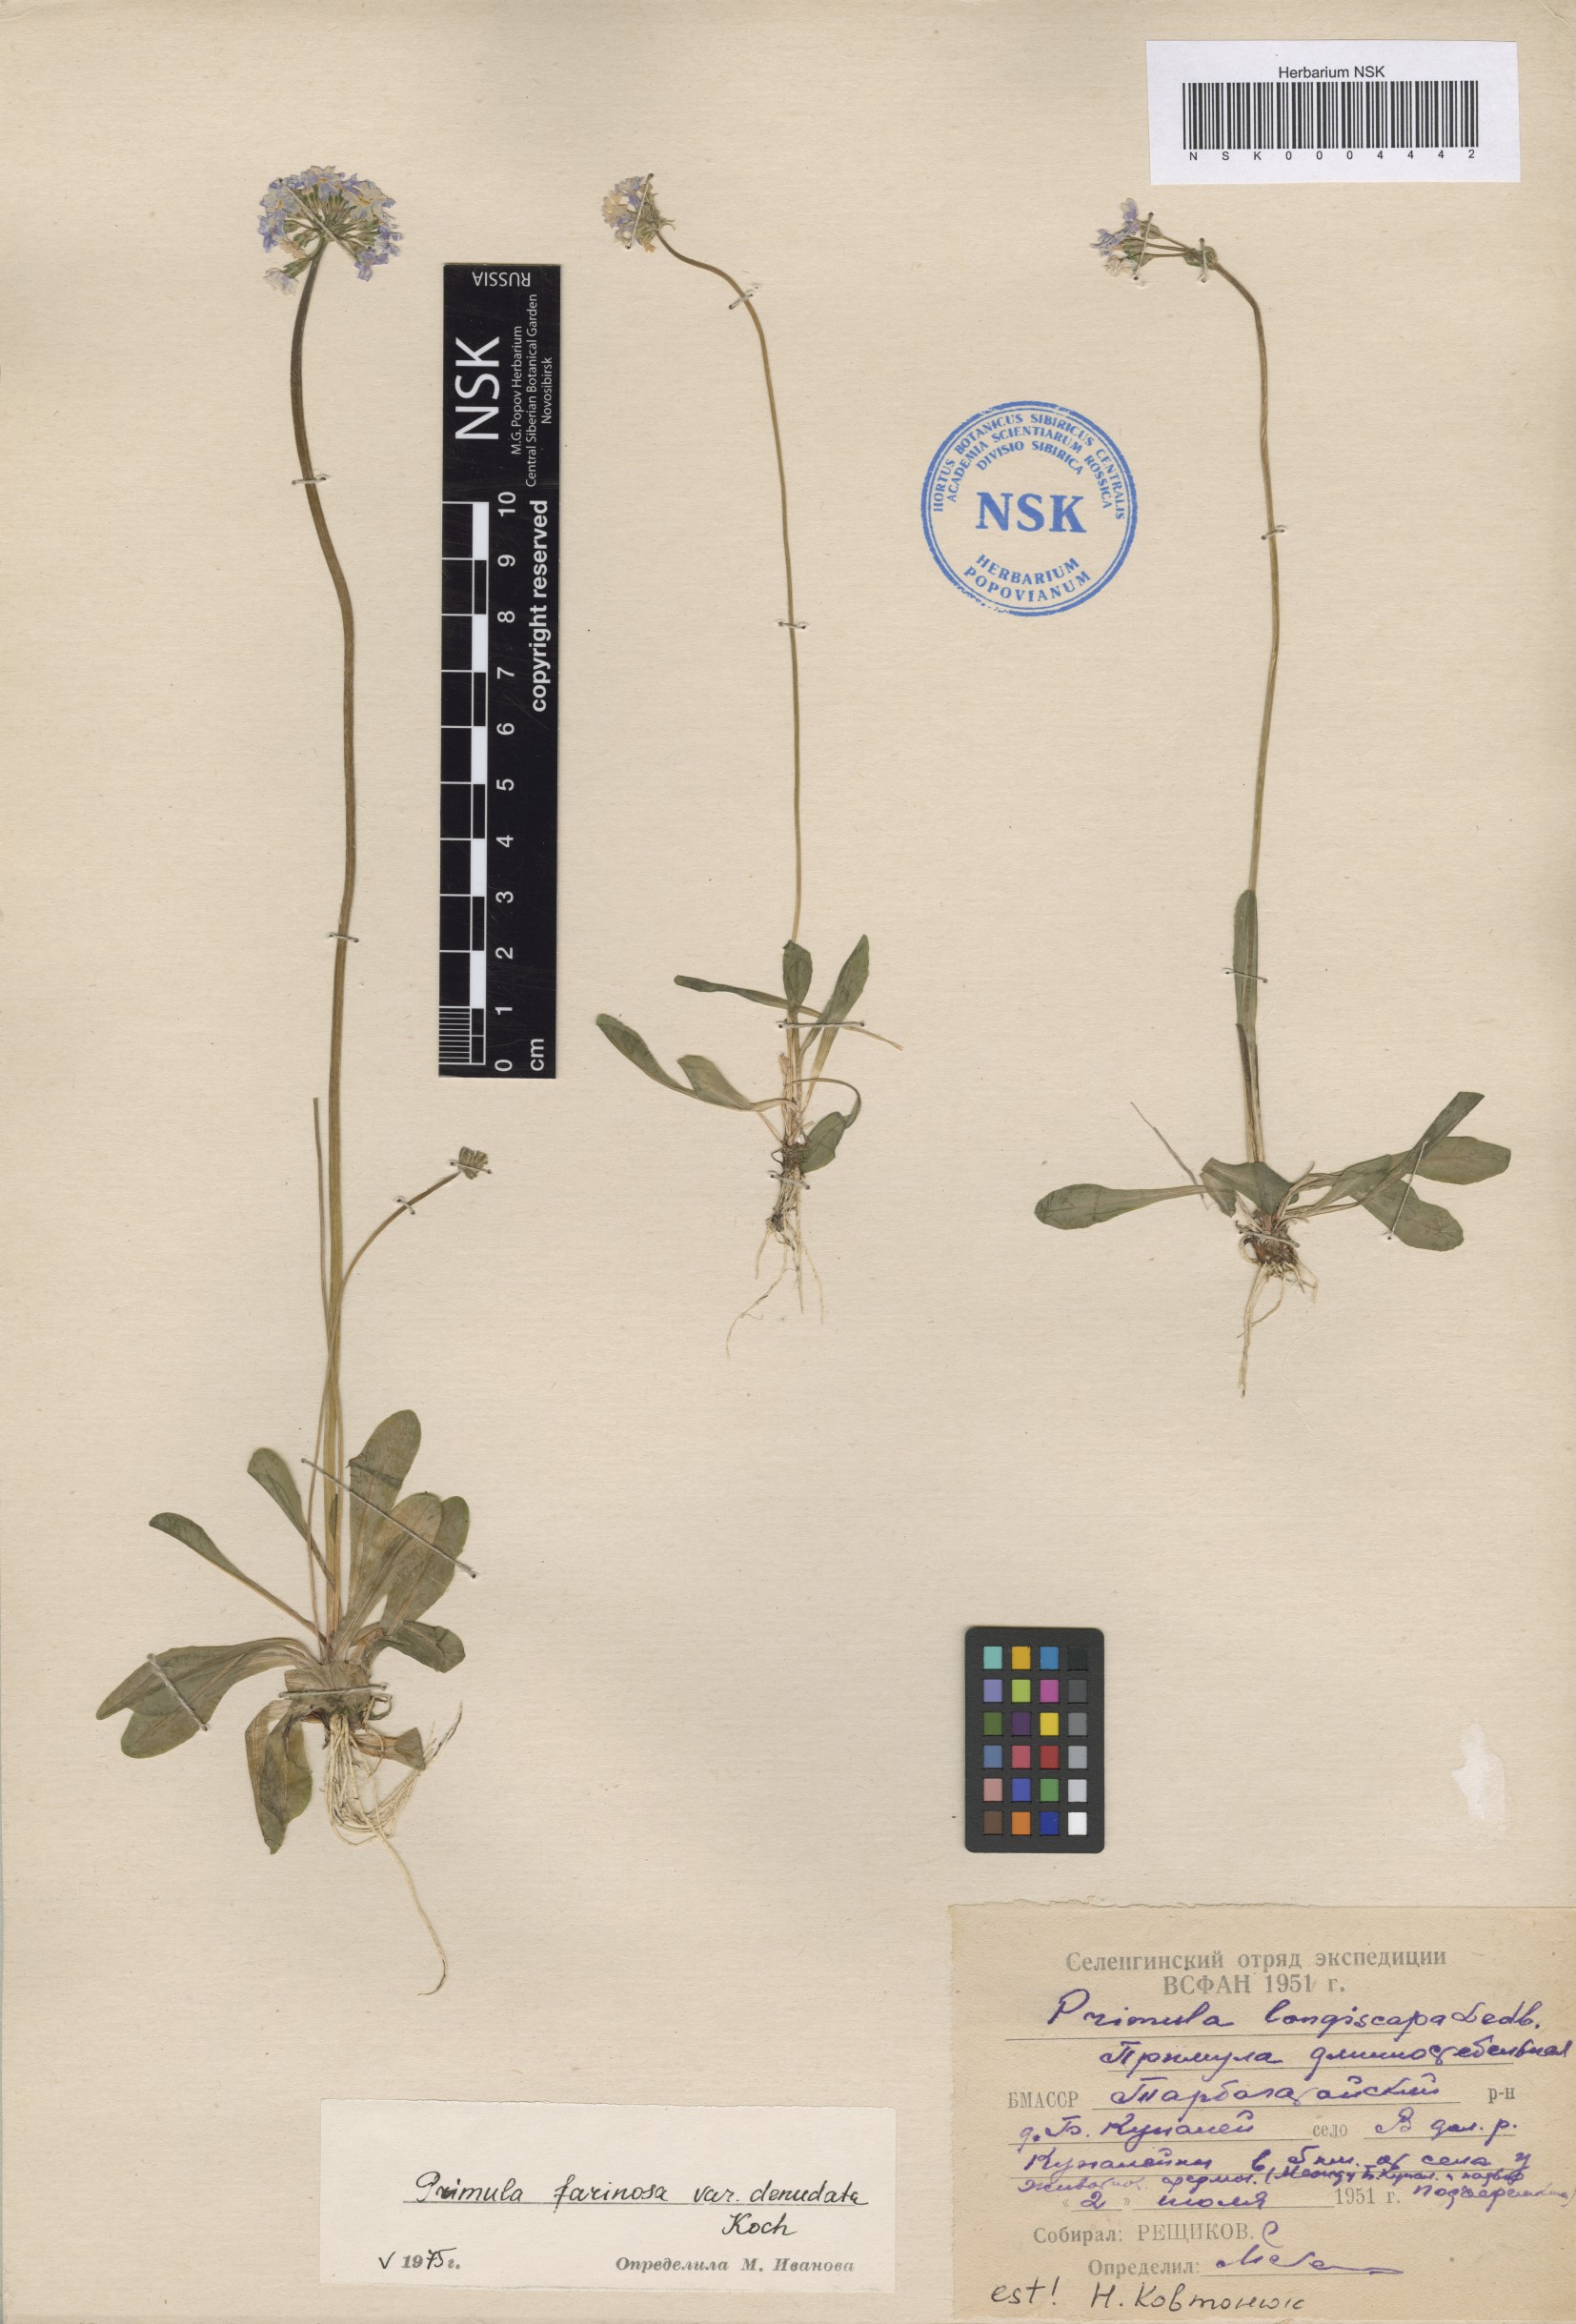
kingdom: Plantae
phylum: Tracheophyta
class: Magnoliopsida
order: Ericales
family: Primulaceae
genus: Primula
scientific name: Primula longiscapa
